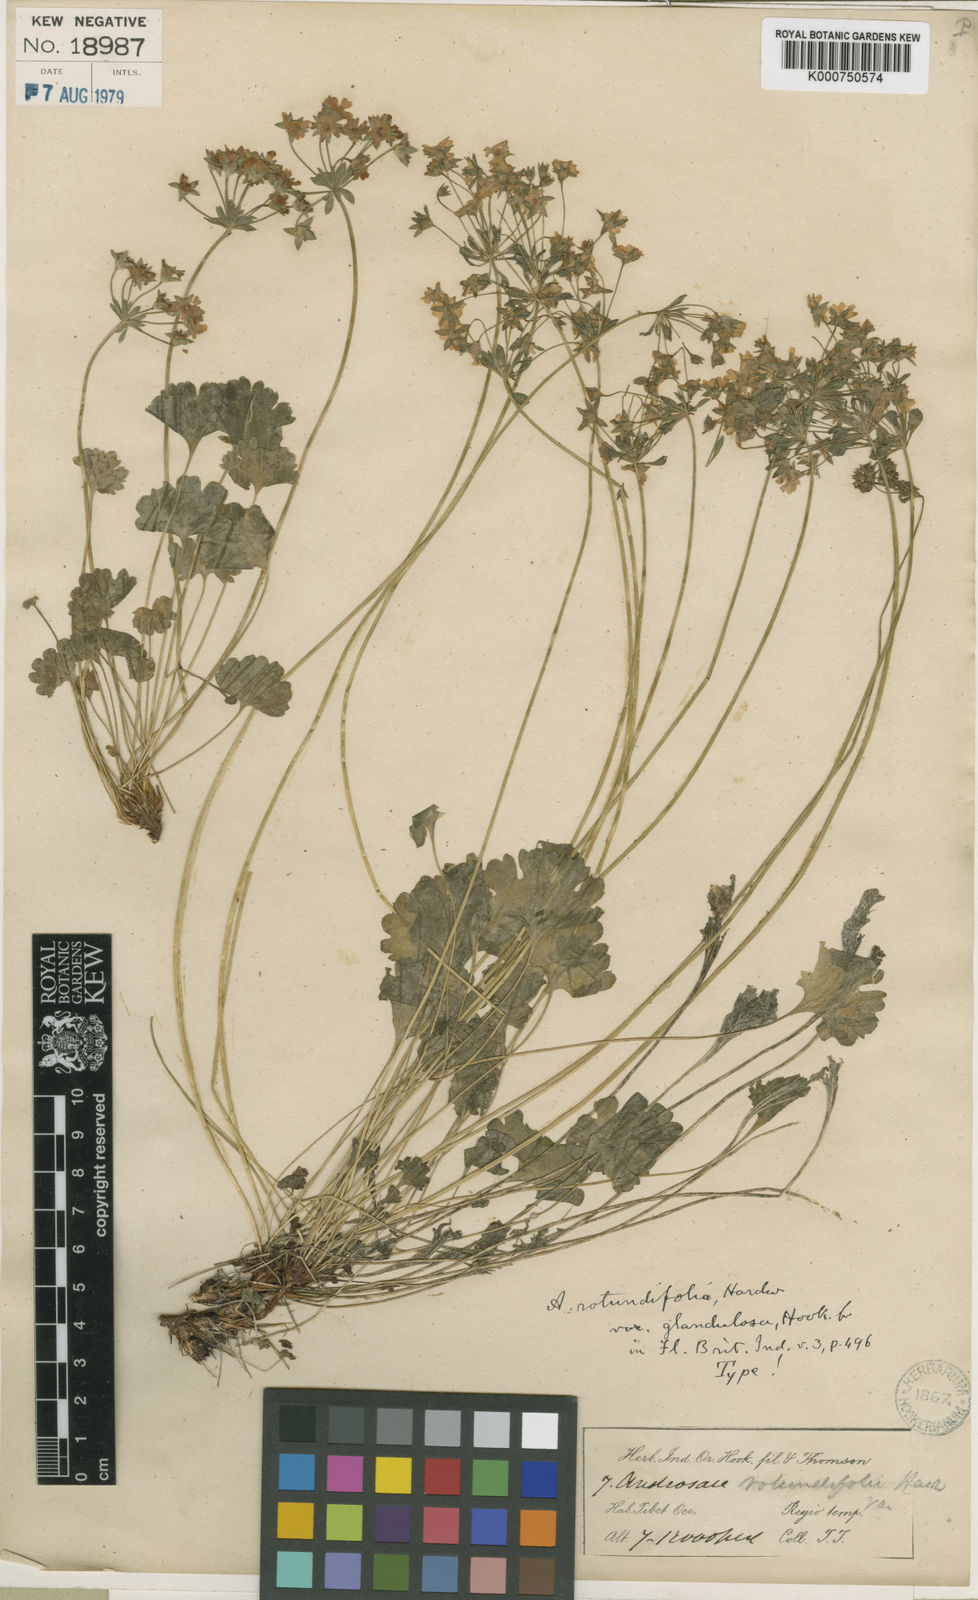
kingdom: Plantae
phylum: Tracheophyta
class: Magnoliopsida
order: Ericales
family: Primulaceae
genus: Androsace
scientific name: Androsace rotundifolia
